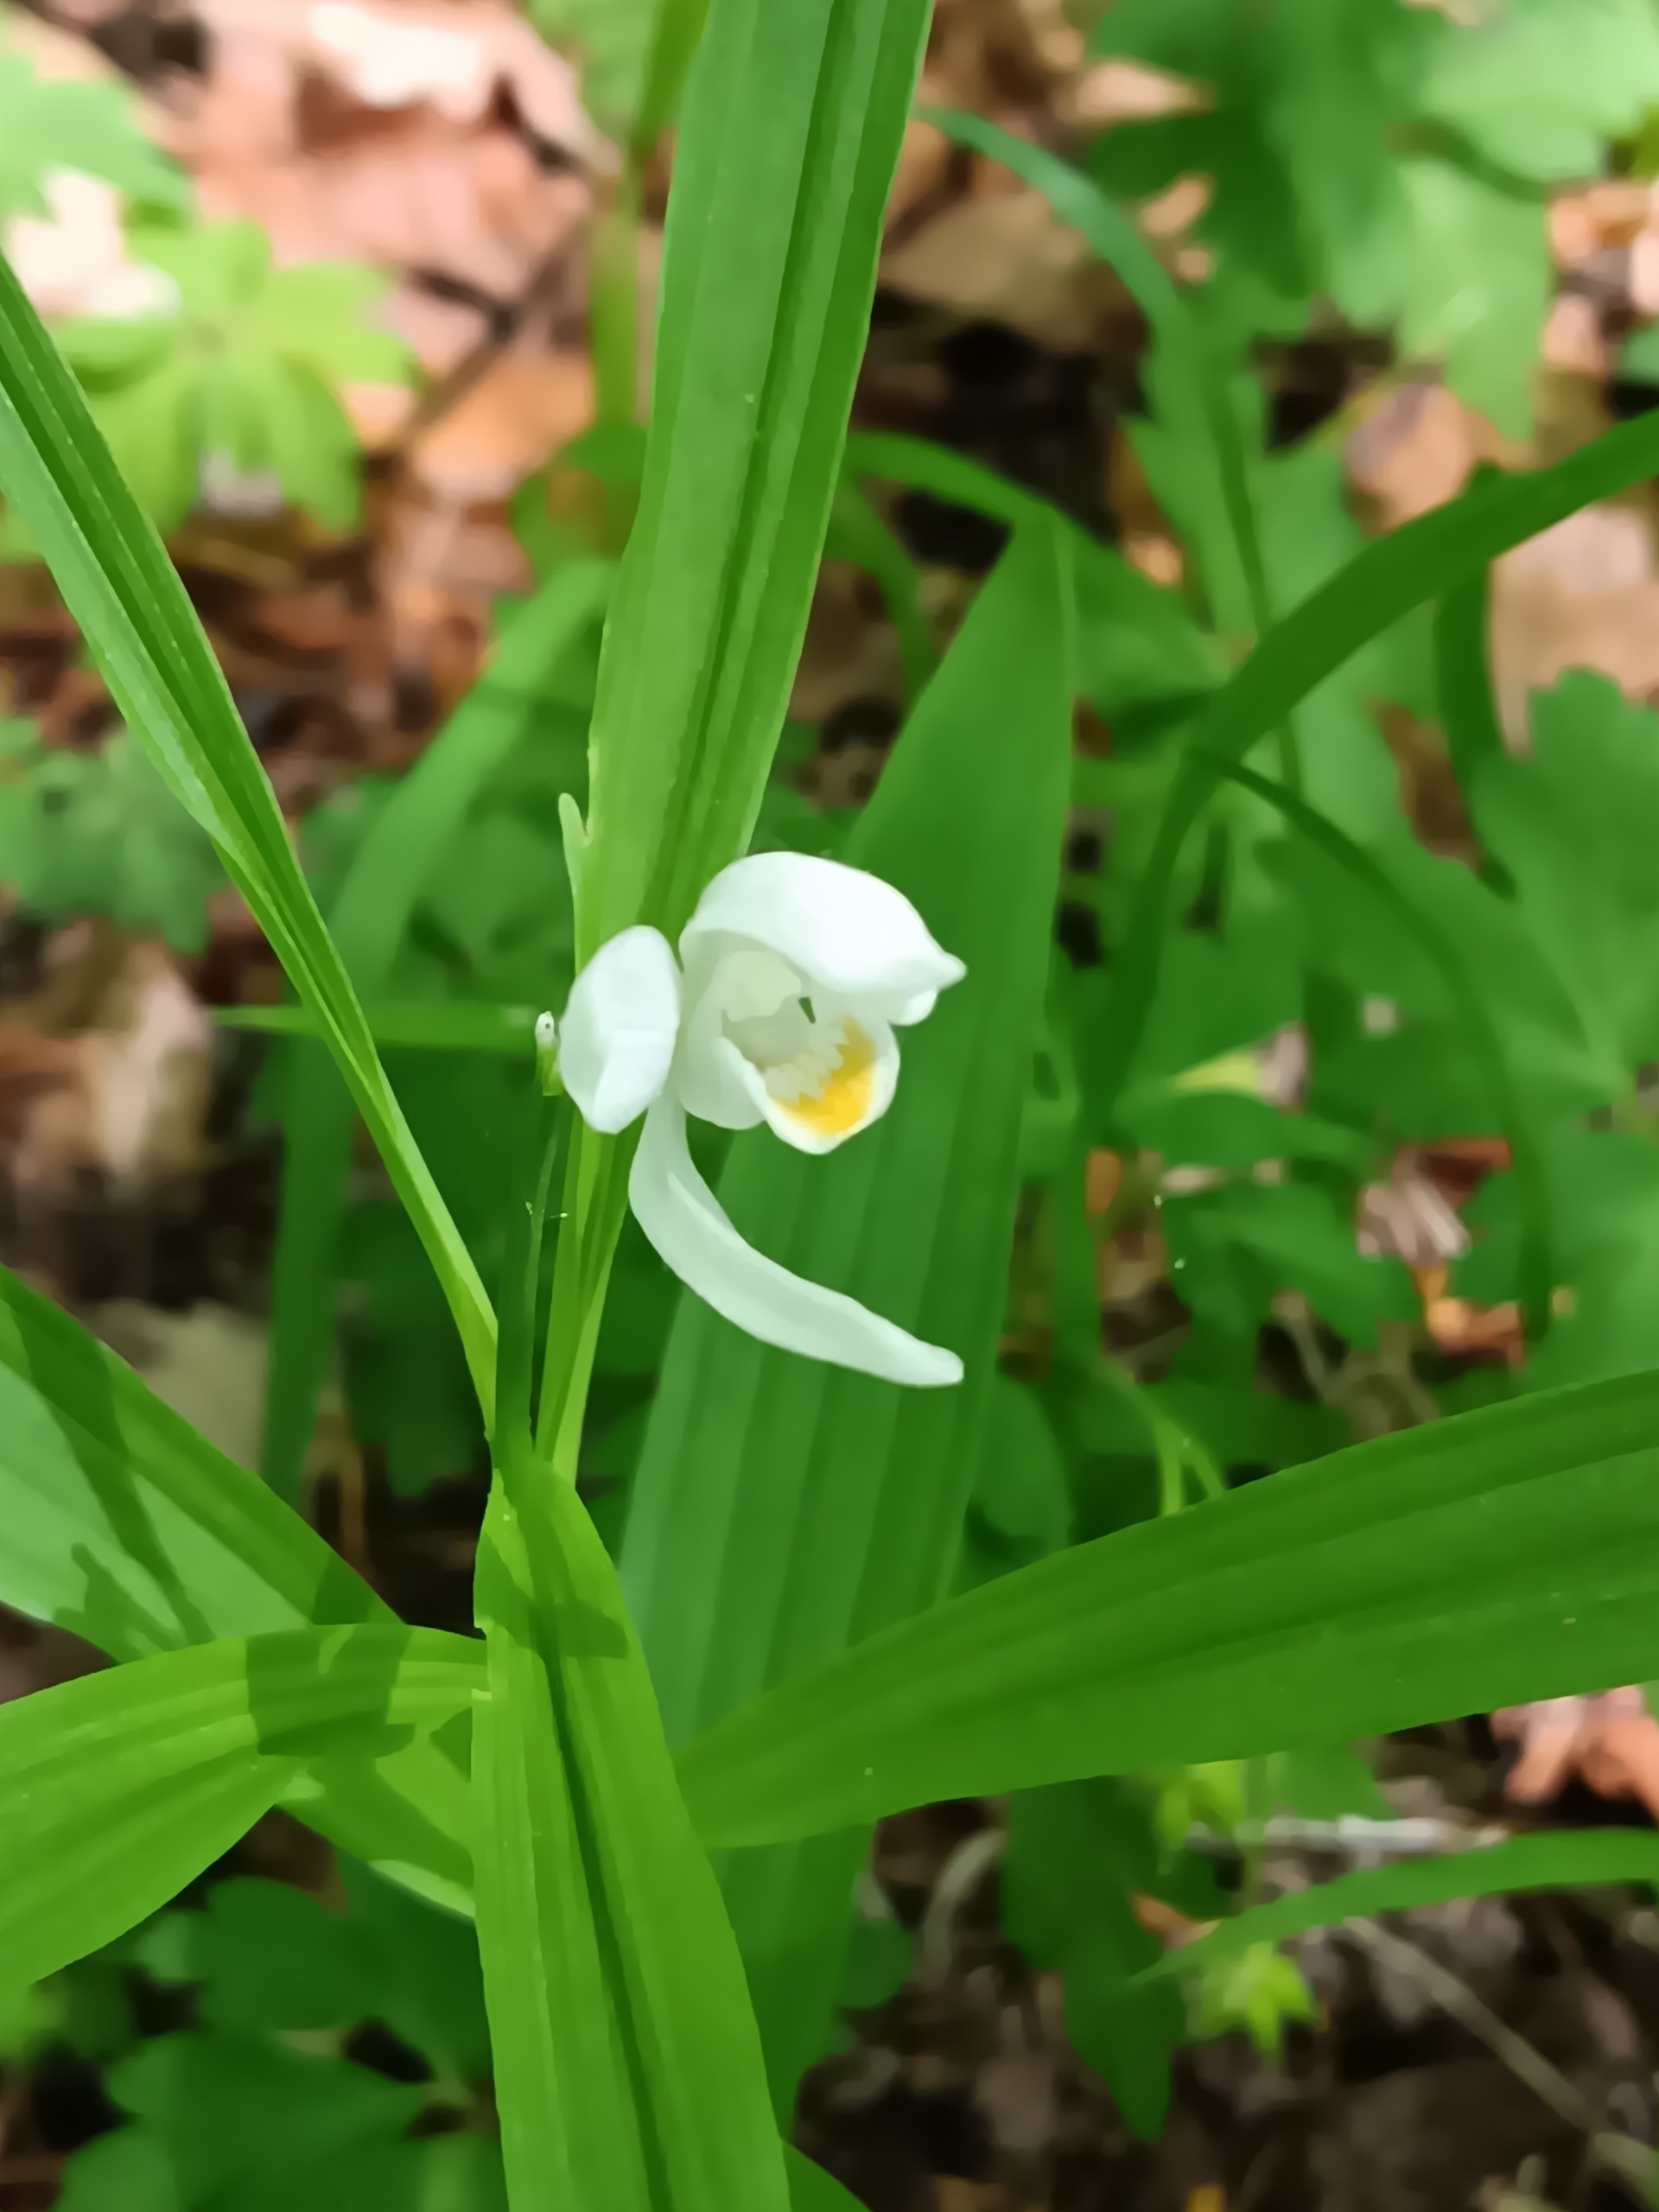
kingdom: Plantae
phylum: Tracheophyta
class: Liliopsida
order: Asparagales
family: Orchidaceae
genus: Cephalanthera
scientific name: Cephalanthera longifolia
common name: Sværd-skovlilje
